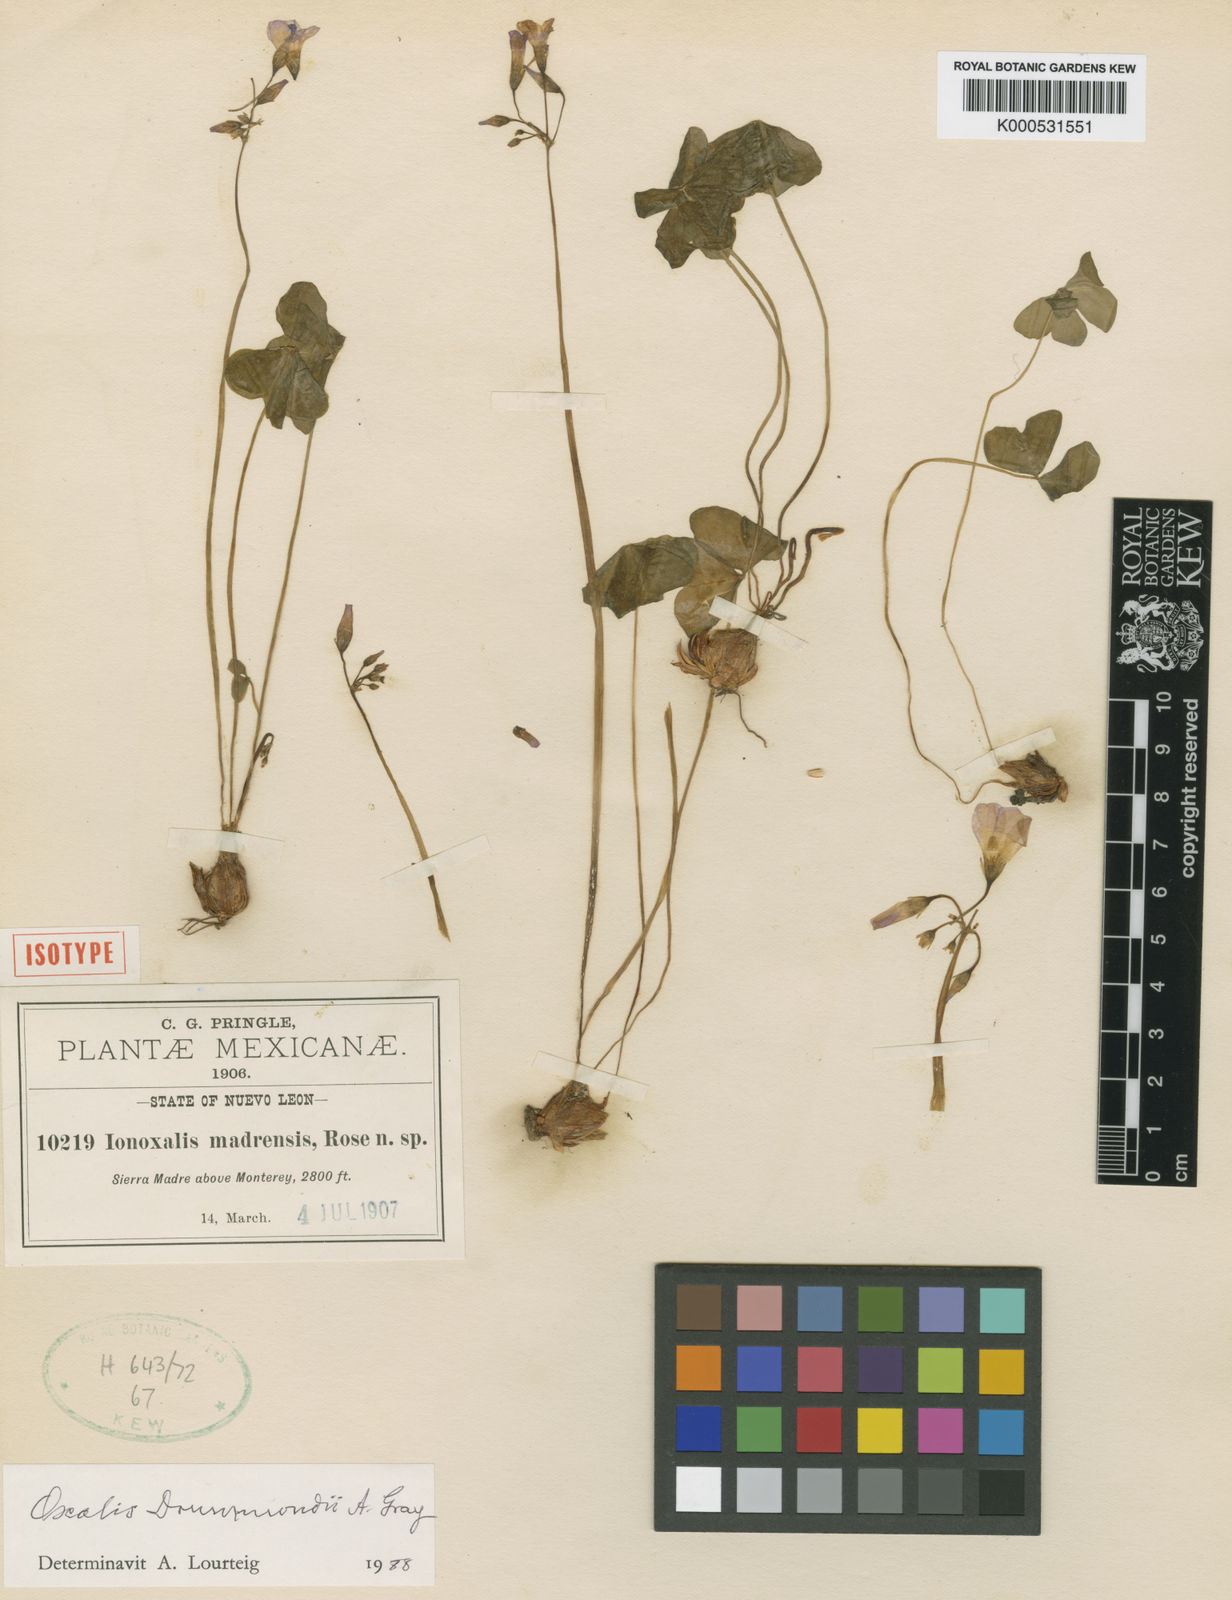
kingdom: Plantae
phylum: Tracheophyta
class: Magnoliopsida
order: Oxalidales
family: Oxalidaceae
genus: Oxalis
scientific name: Oxalis drummondii
